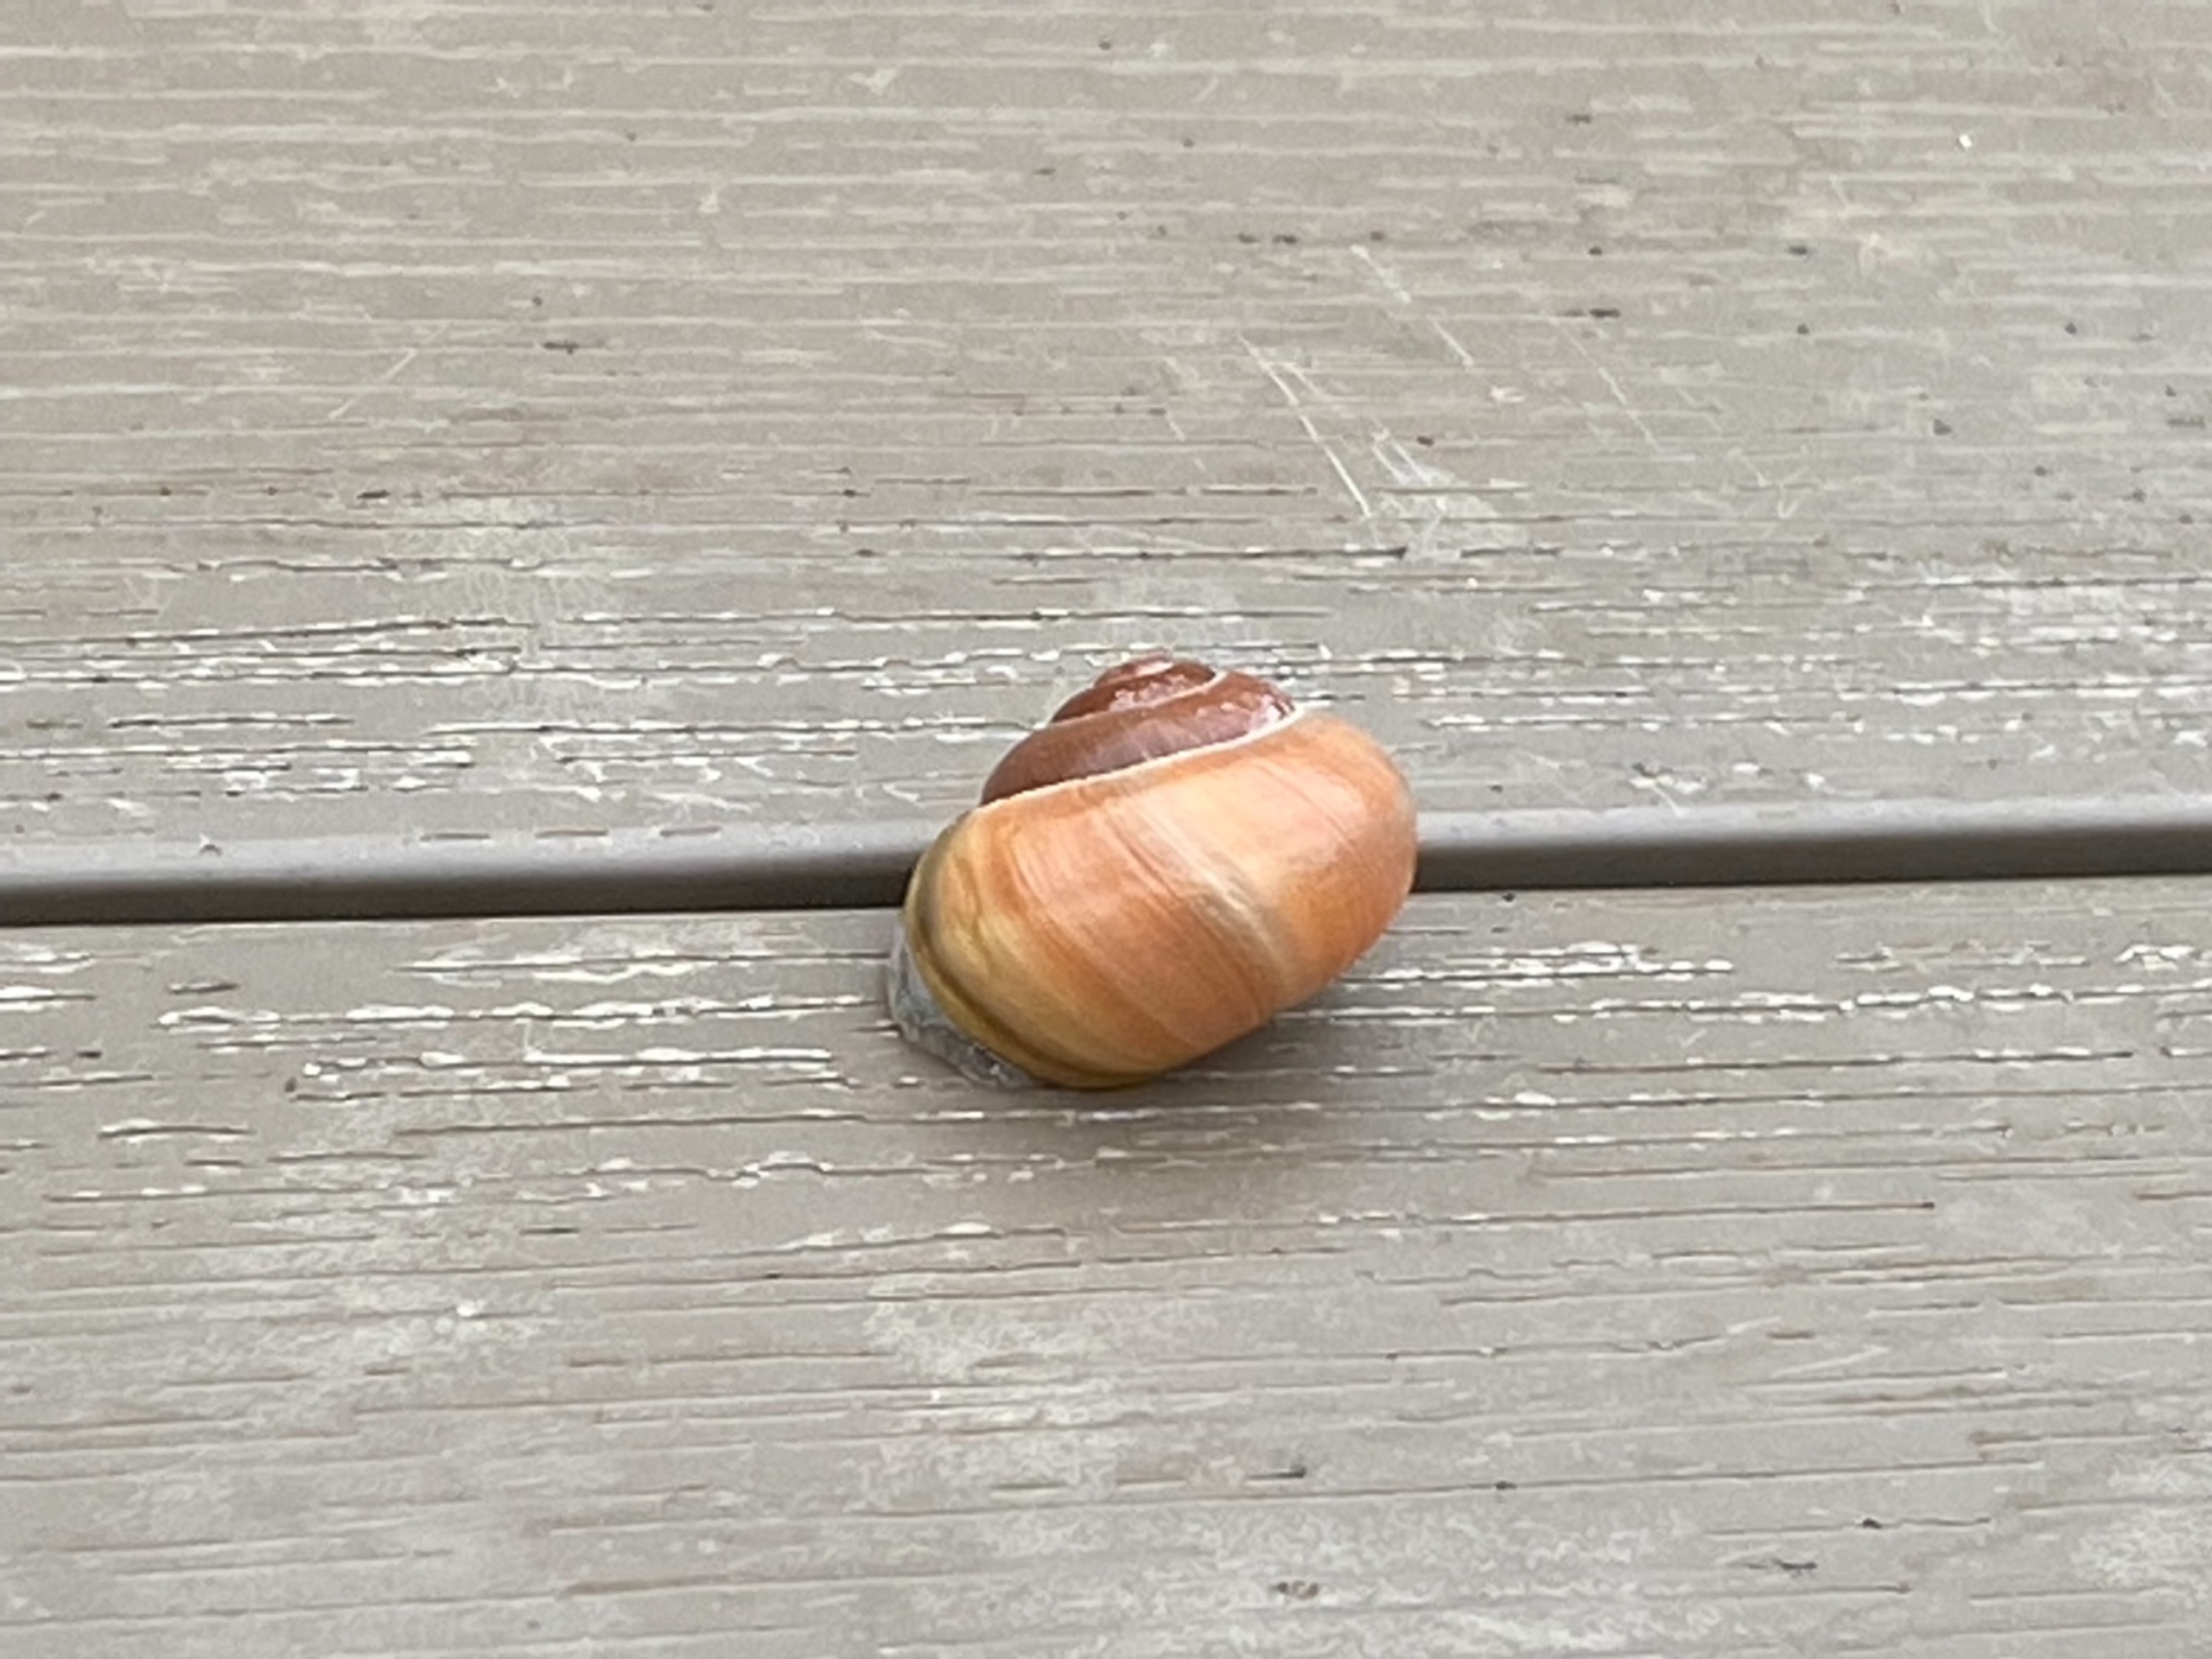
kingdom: Animalia
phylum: Mollusca
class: Gastropoda
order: Stylommatophora
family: Helicidae
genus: Cepaea
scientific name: Cepaea hortensis
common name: Havesnegl
